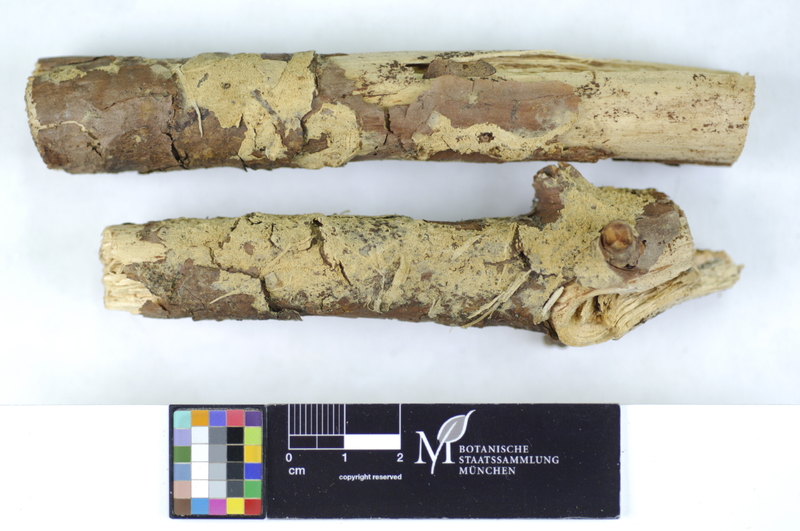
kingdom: Plantae
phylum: Tracheophyta
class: Pinopsida
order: Pinales
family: Pinaceae
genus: Pinus
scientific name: Pinus
